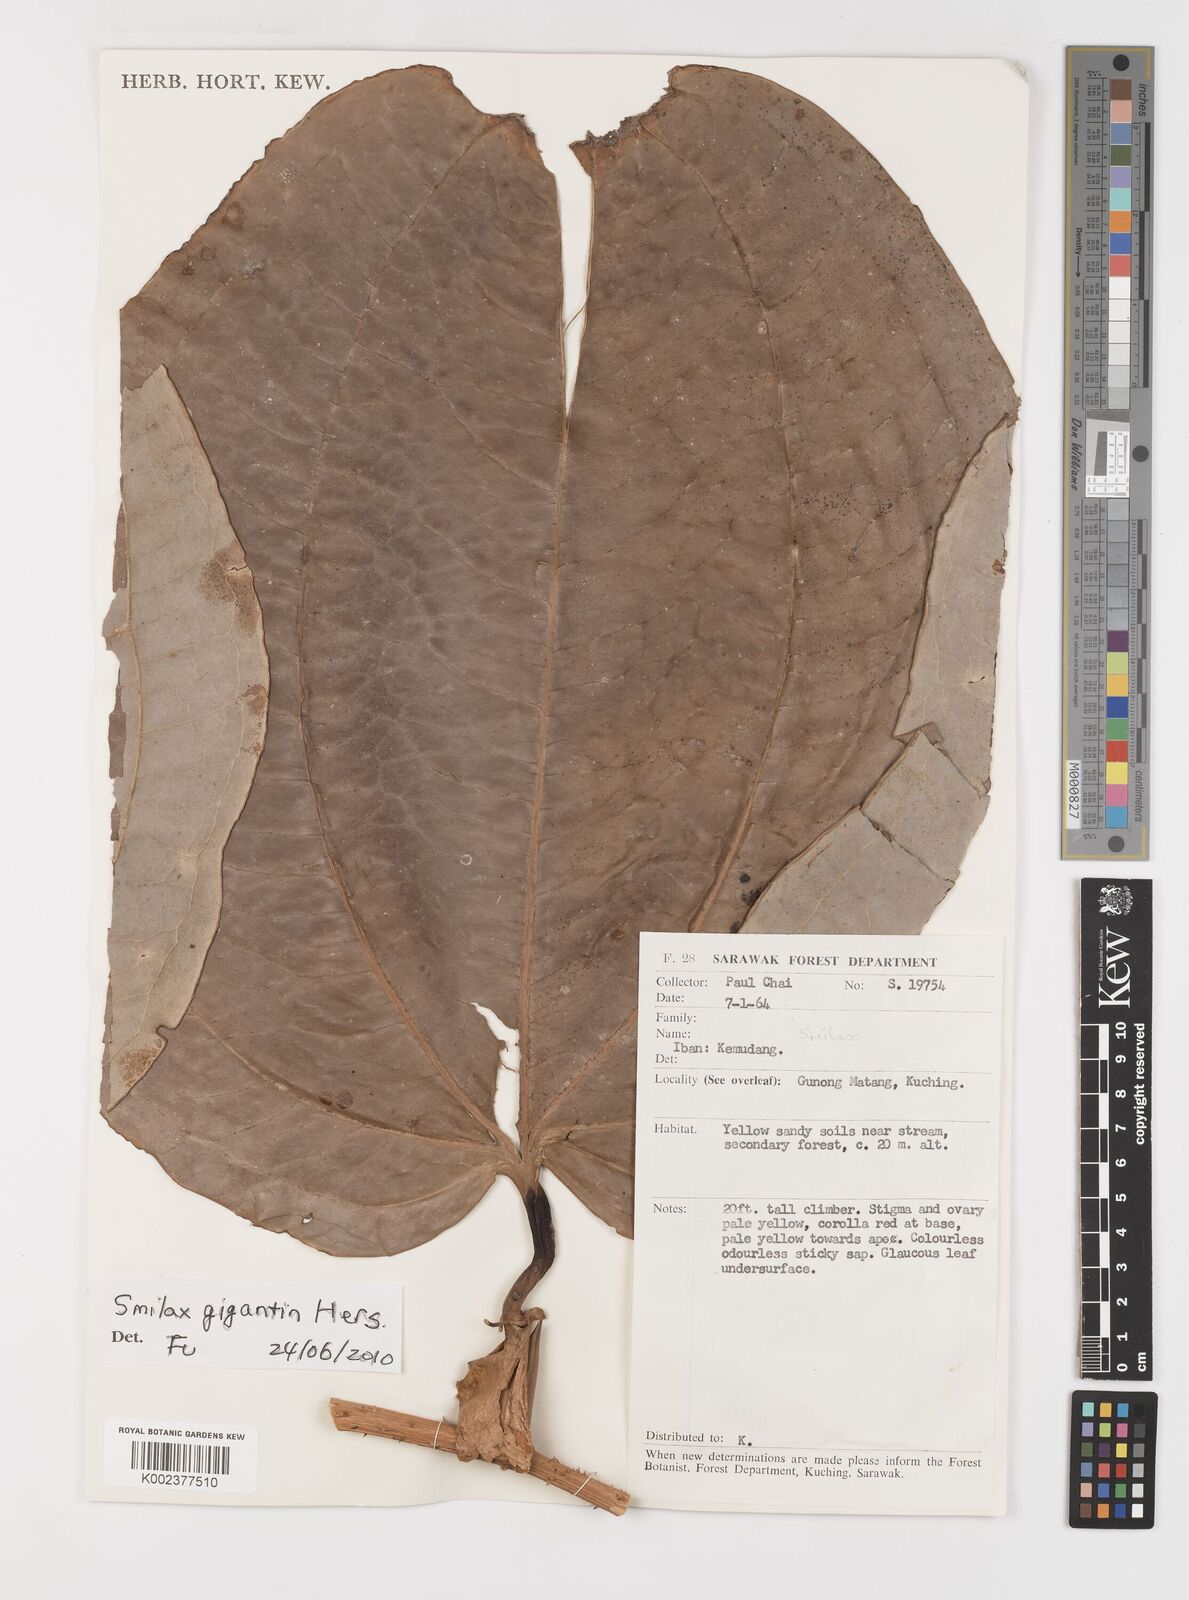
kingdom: Plantae
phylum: Tracheophyta
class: Liliopsida
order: Liliales
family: Smilacaceae
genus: Smilax
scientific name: Smilax gigantea
